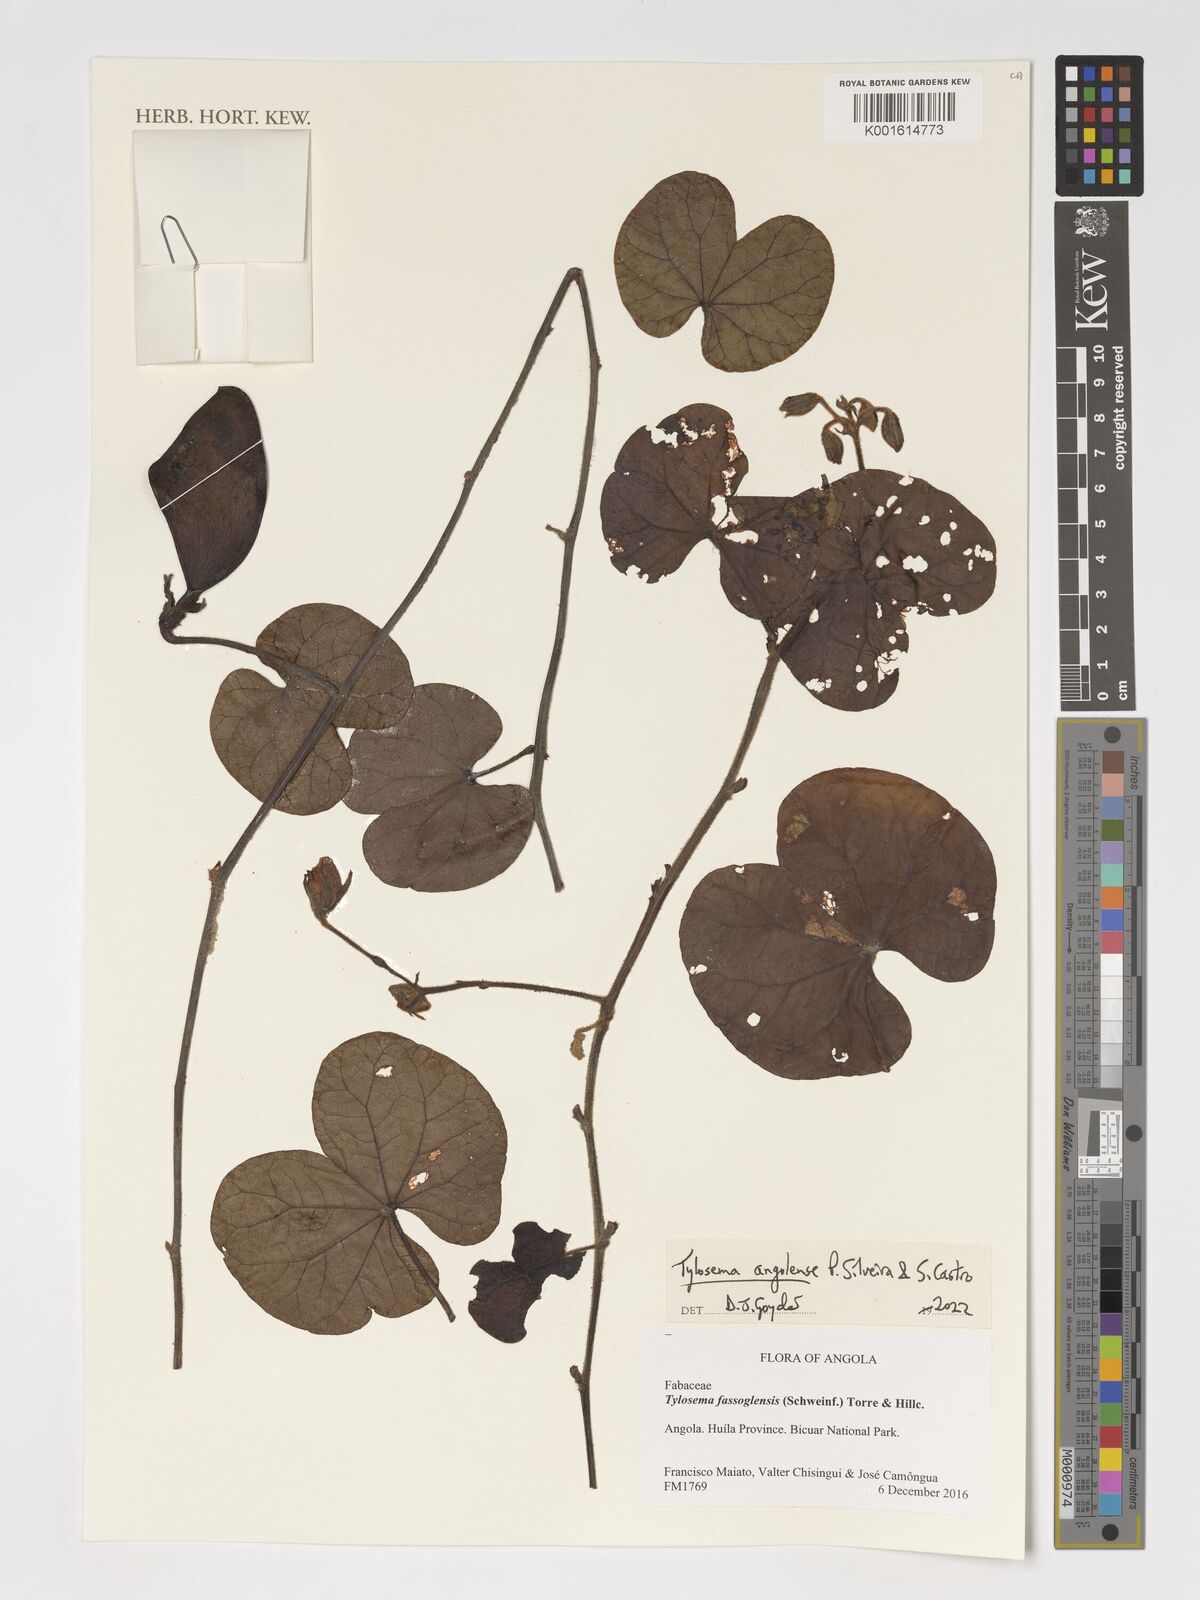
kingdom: Plantae
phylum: Tracheophyta
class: Magnoliopsida
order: Fabales
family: Fabaceae
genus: Tylosema
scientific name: Tylosema angolense
